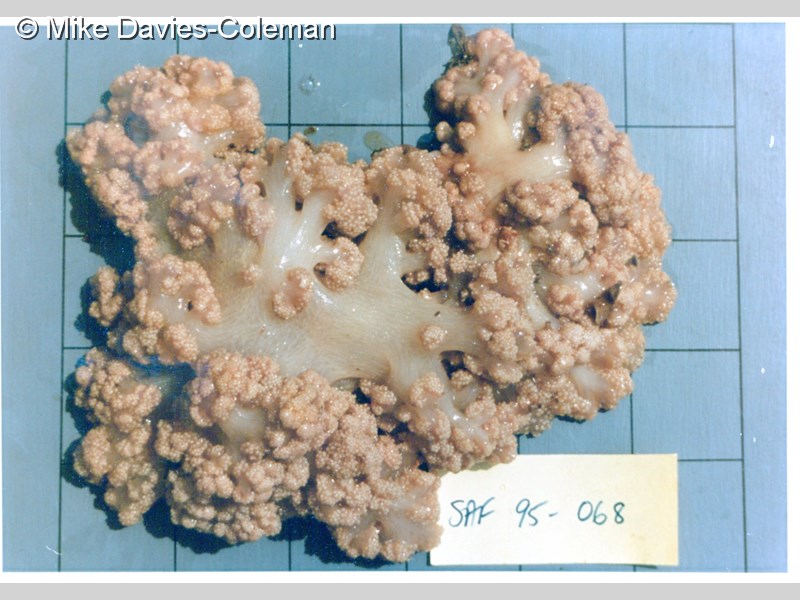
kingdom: Animalia
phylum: Cnidaria
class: Anthozoa
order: Malacalcyonacea
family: Alcyoniidae
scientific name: Alcyoniidae
